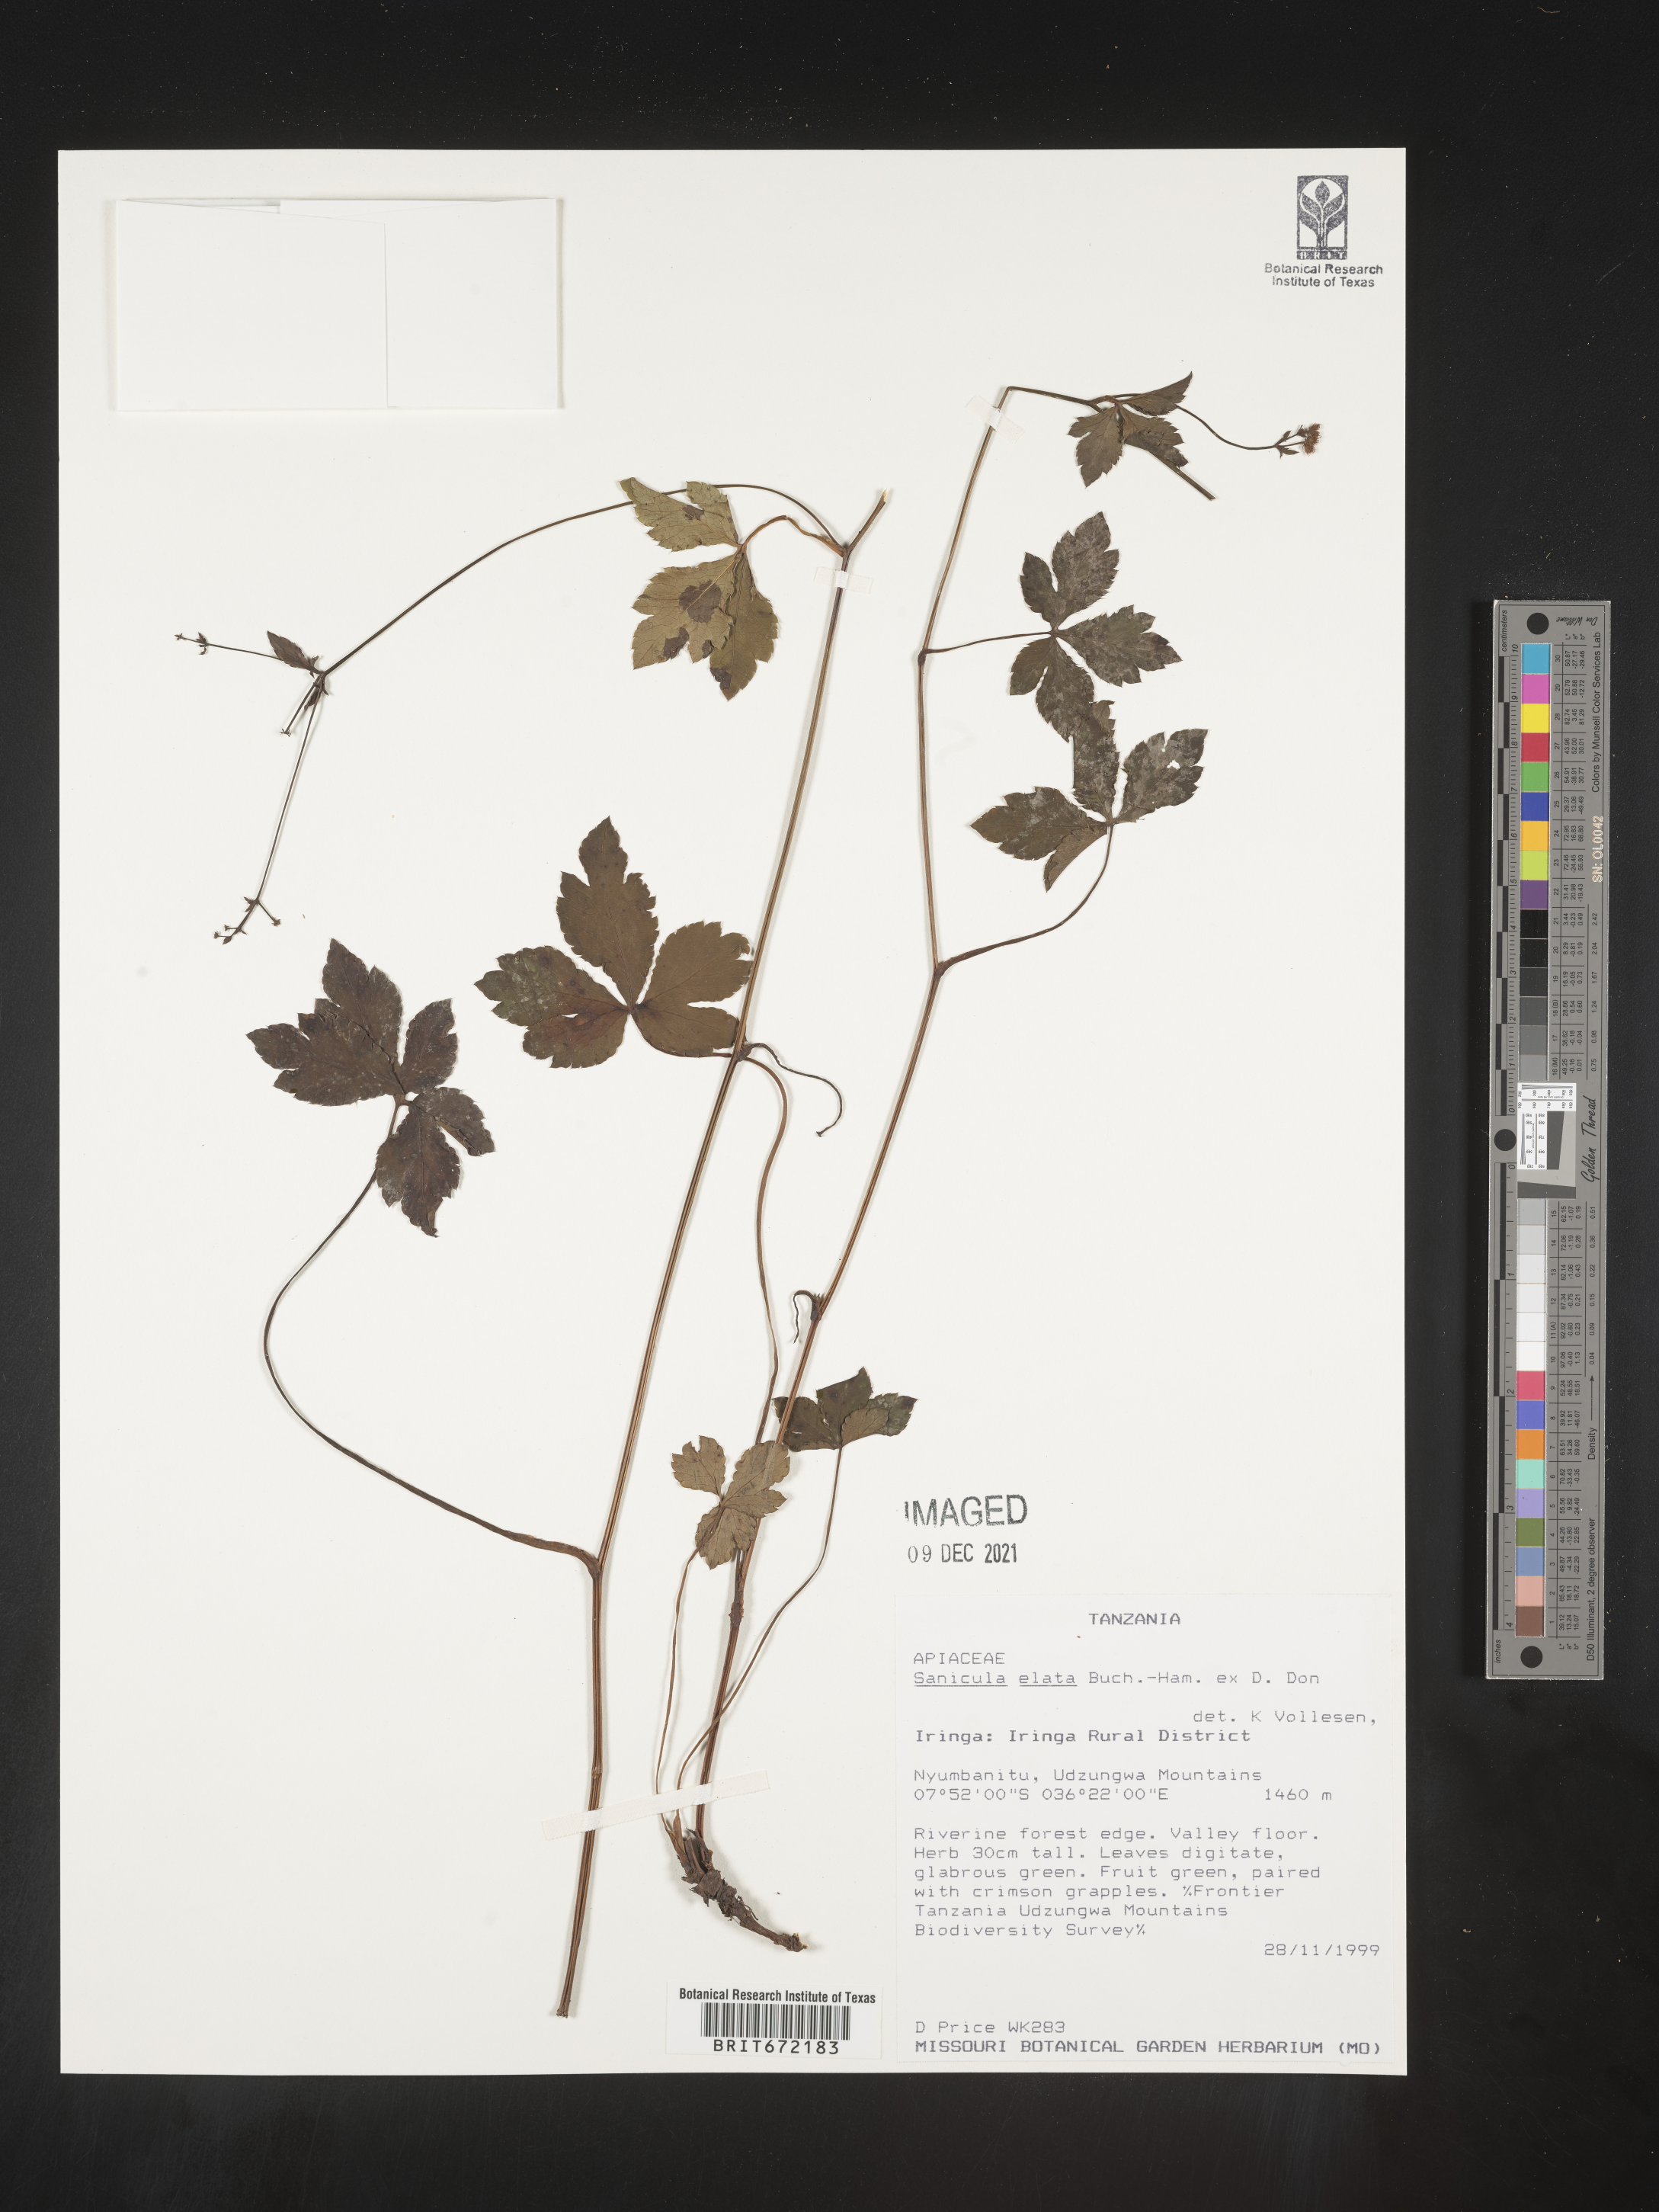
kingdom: Plantae
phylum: Tracheophyta
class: Magnoliopsida
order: Apiales
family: Apiaceae
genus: Sanicula
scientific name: Sanicula
